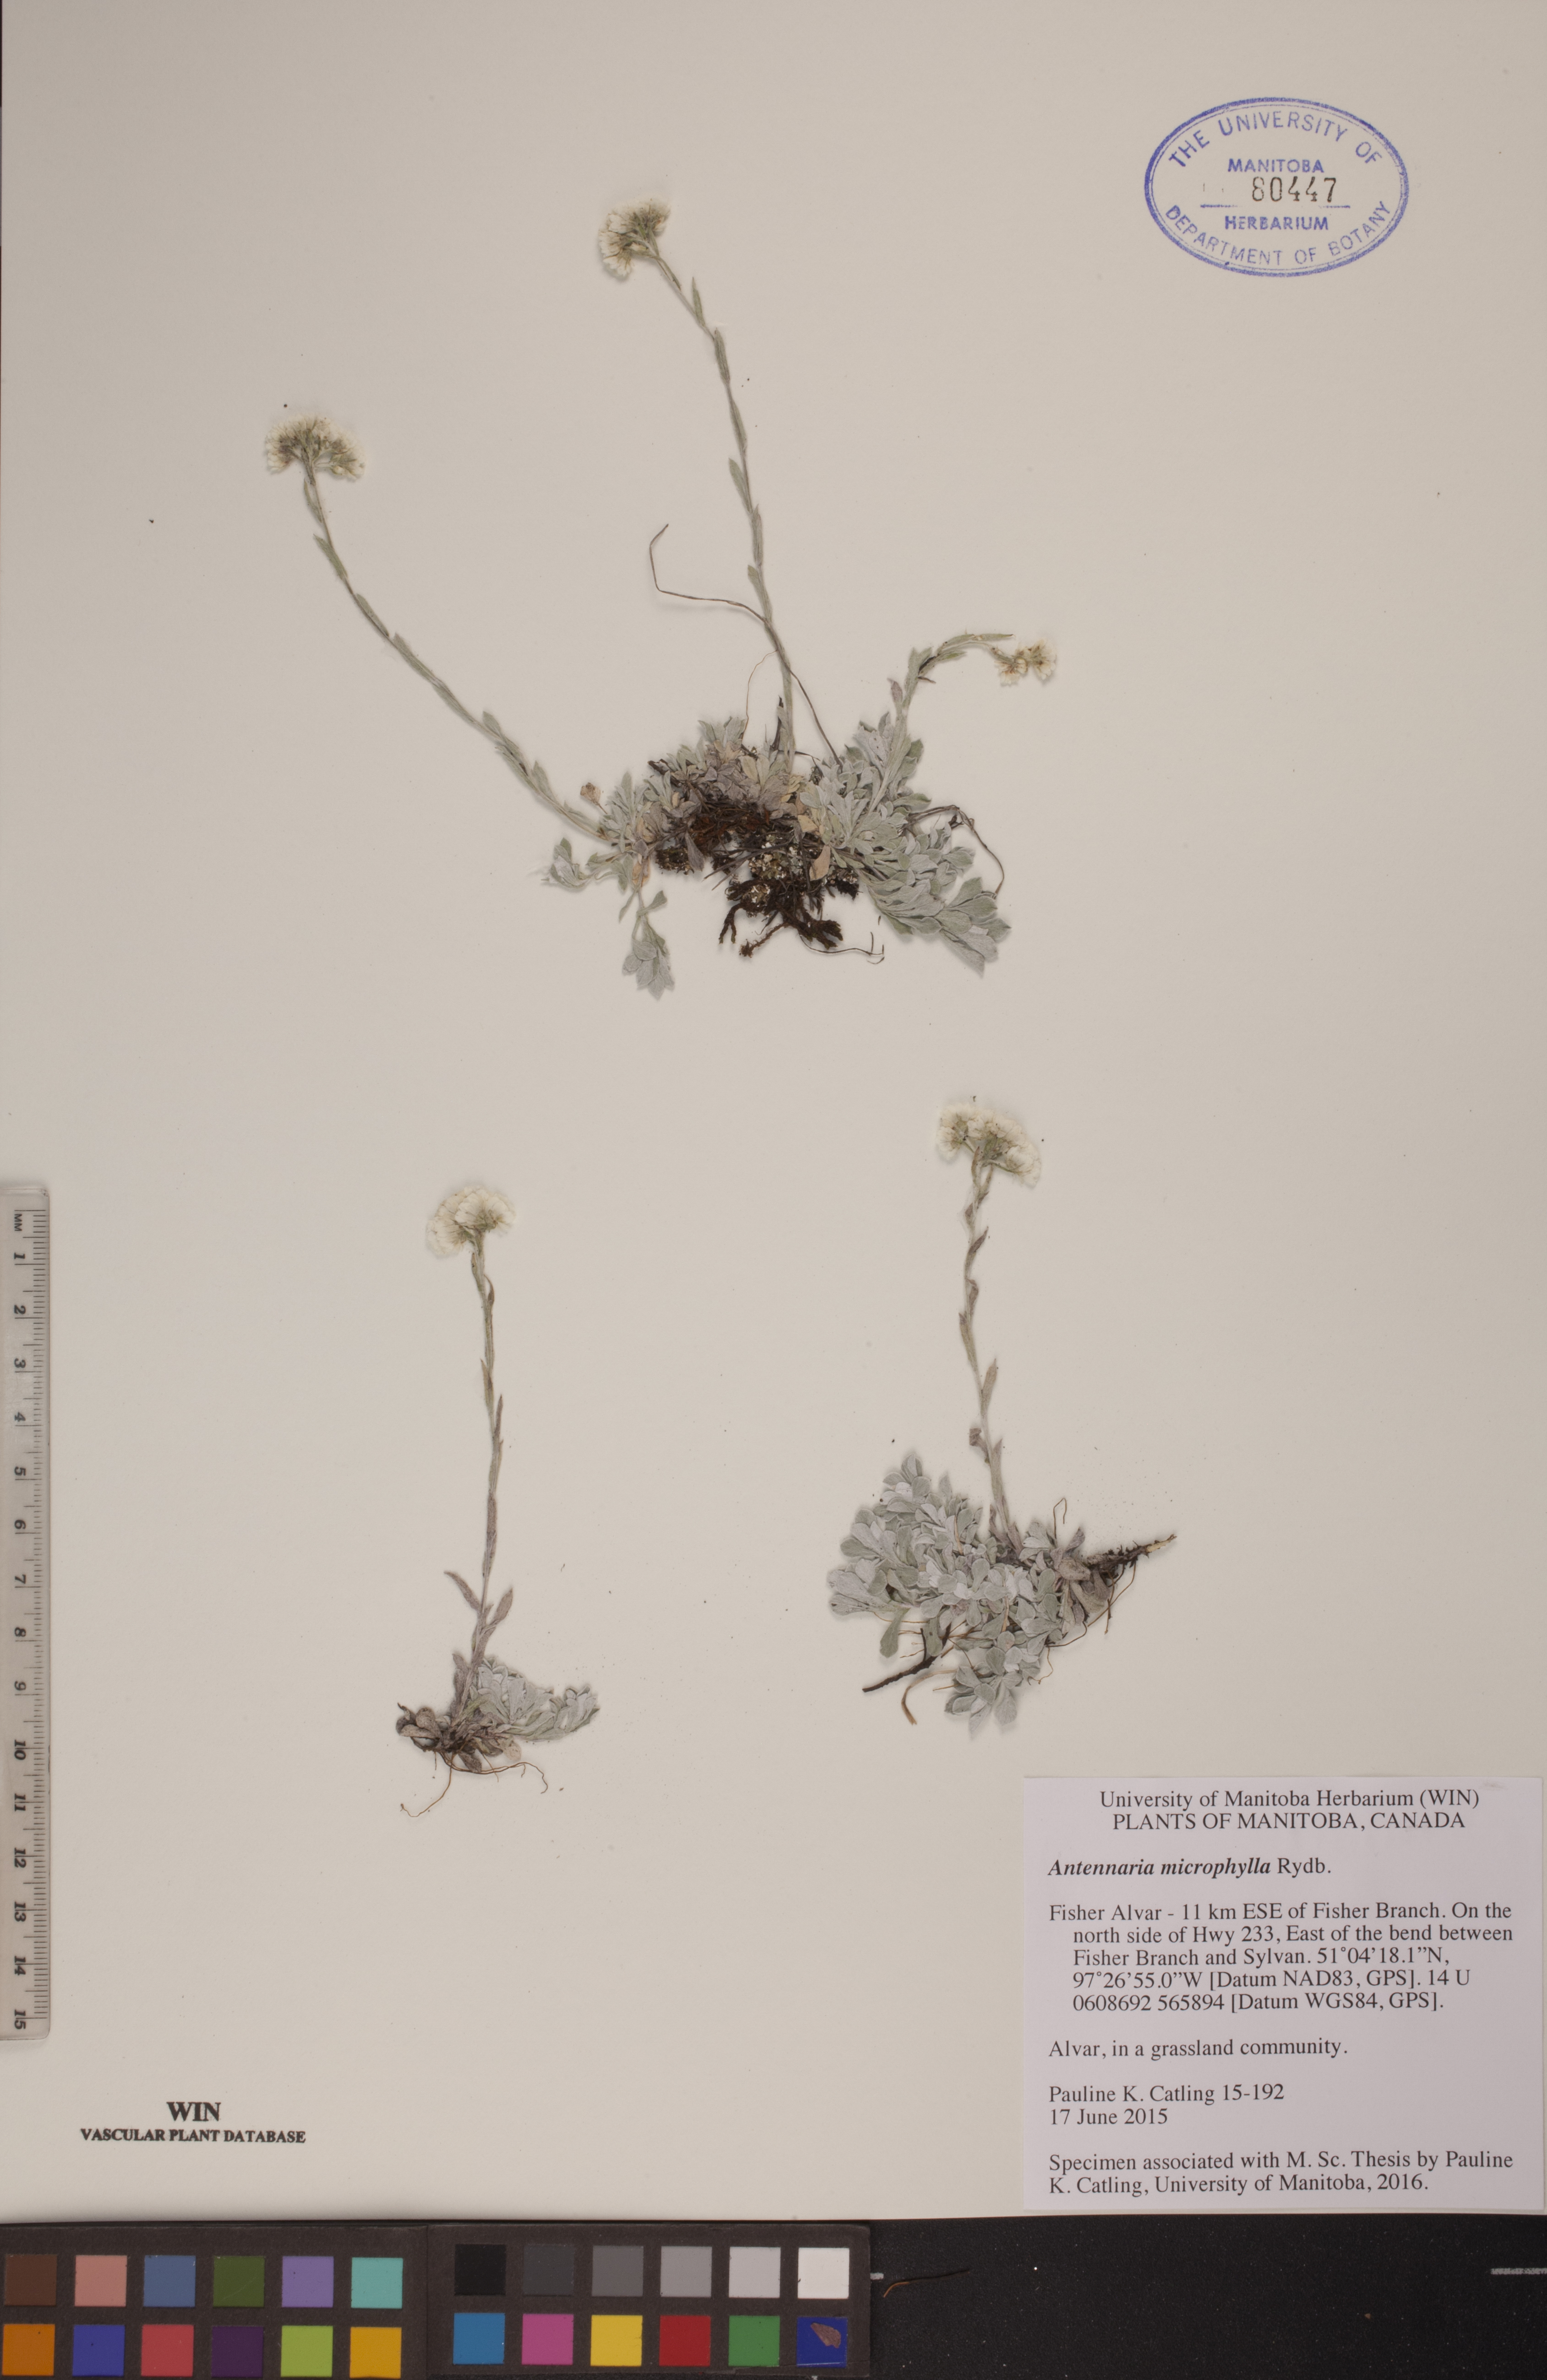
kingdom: Plantae
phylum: Tracheophyta
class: Magnoliopsida
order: Asterales
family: Asteraceae
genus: Antennaria
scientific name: Antennaria microphylla
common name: Littleleaf pussytoes
